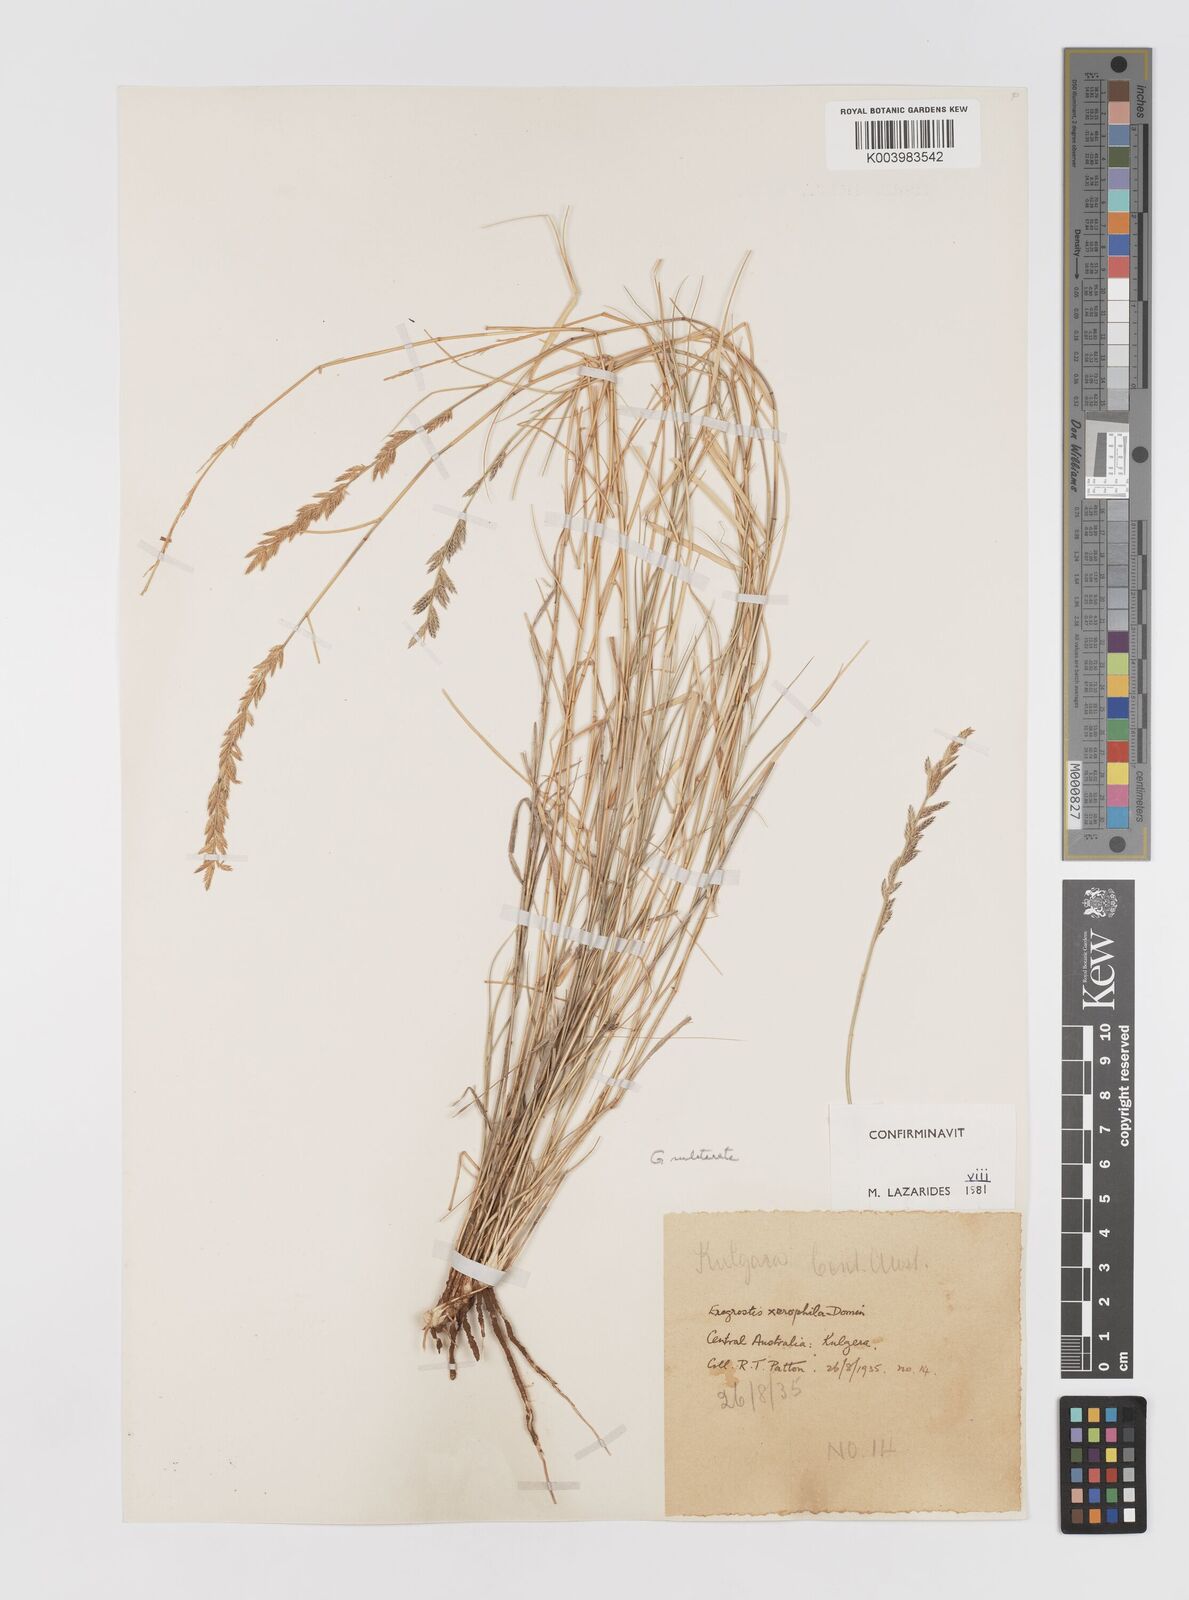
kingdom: Plantae
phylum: Tracheophyta
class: Liliopsida
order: Poales
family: Poaceae
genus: Eragrostis
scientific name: Eragrostis xerophila
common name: Wire wandarrie grass
